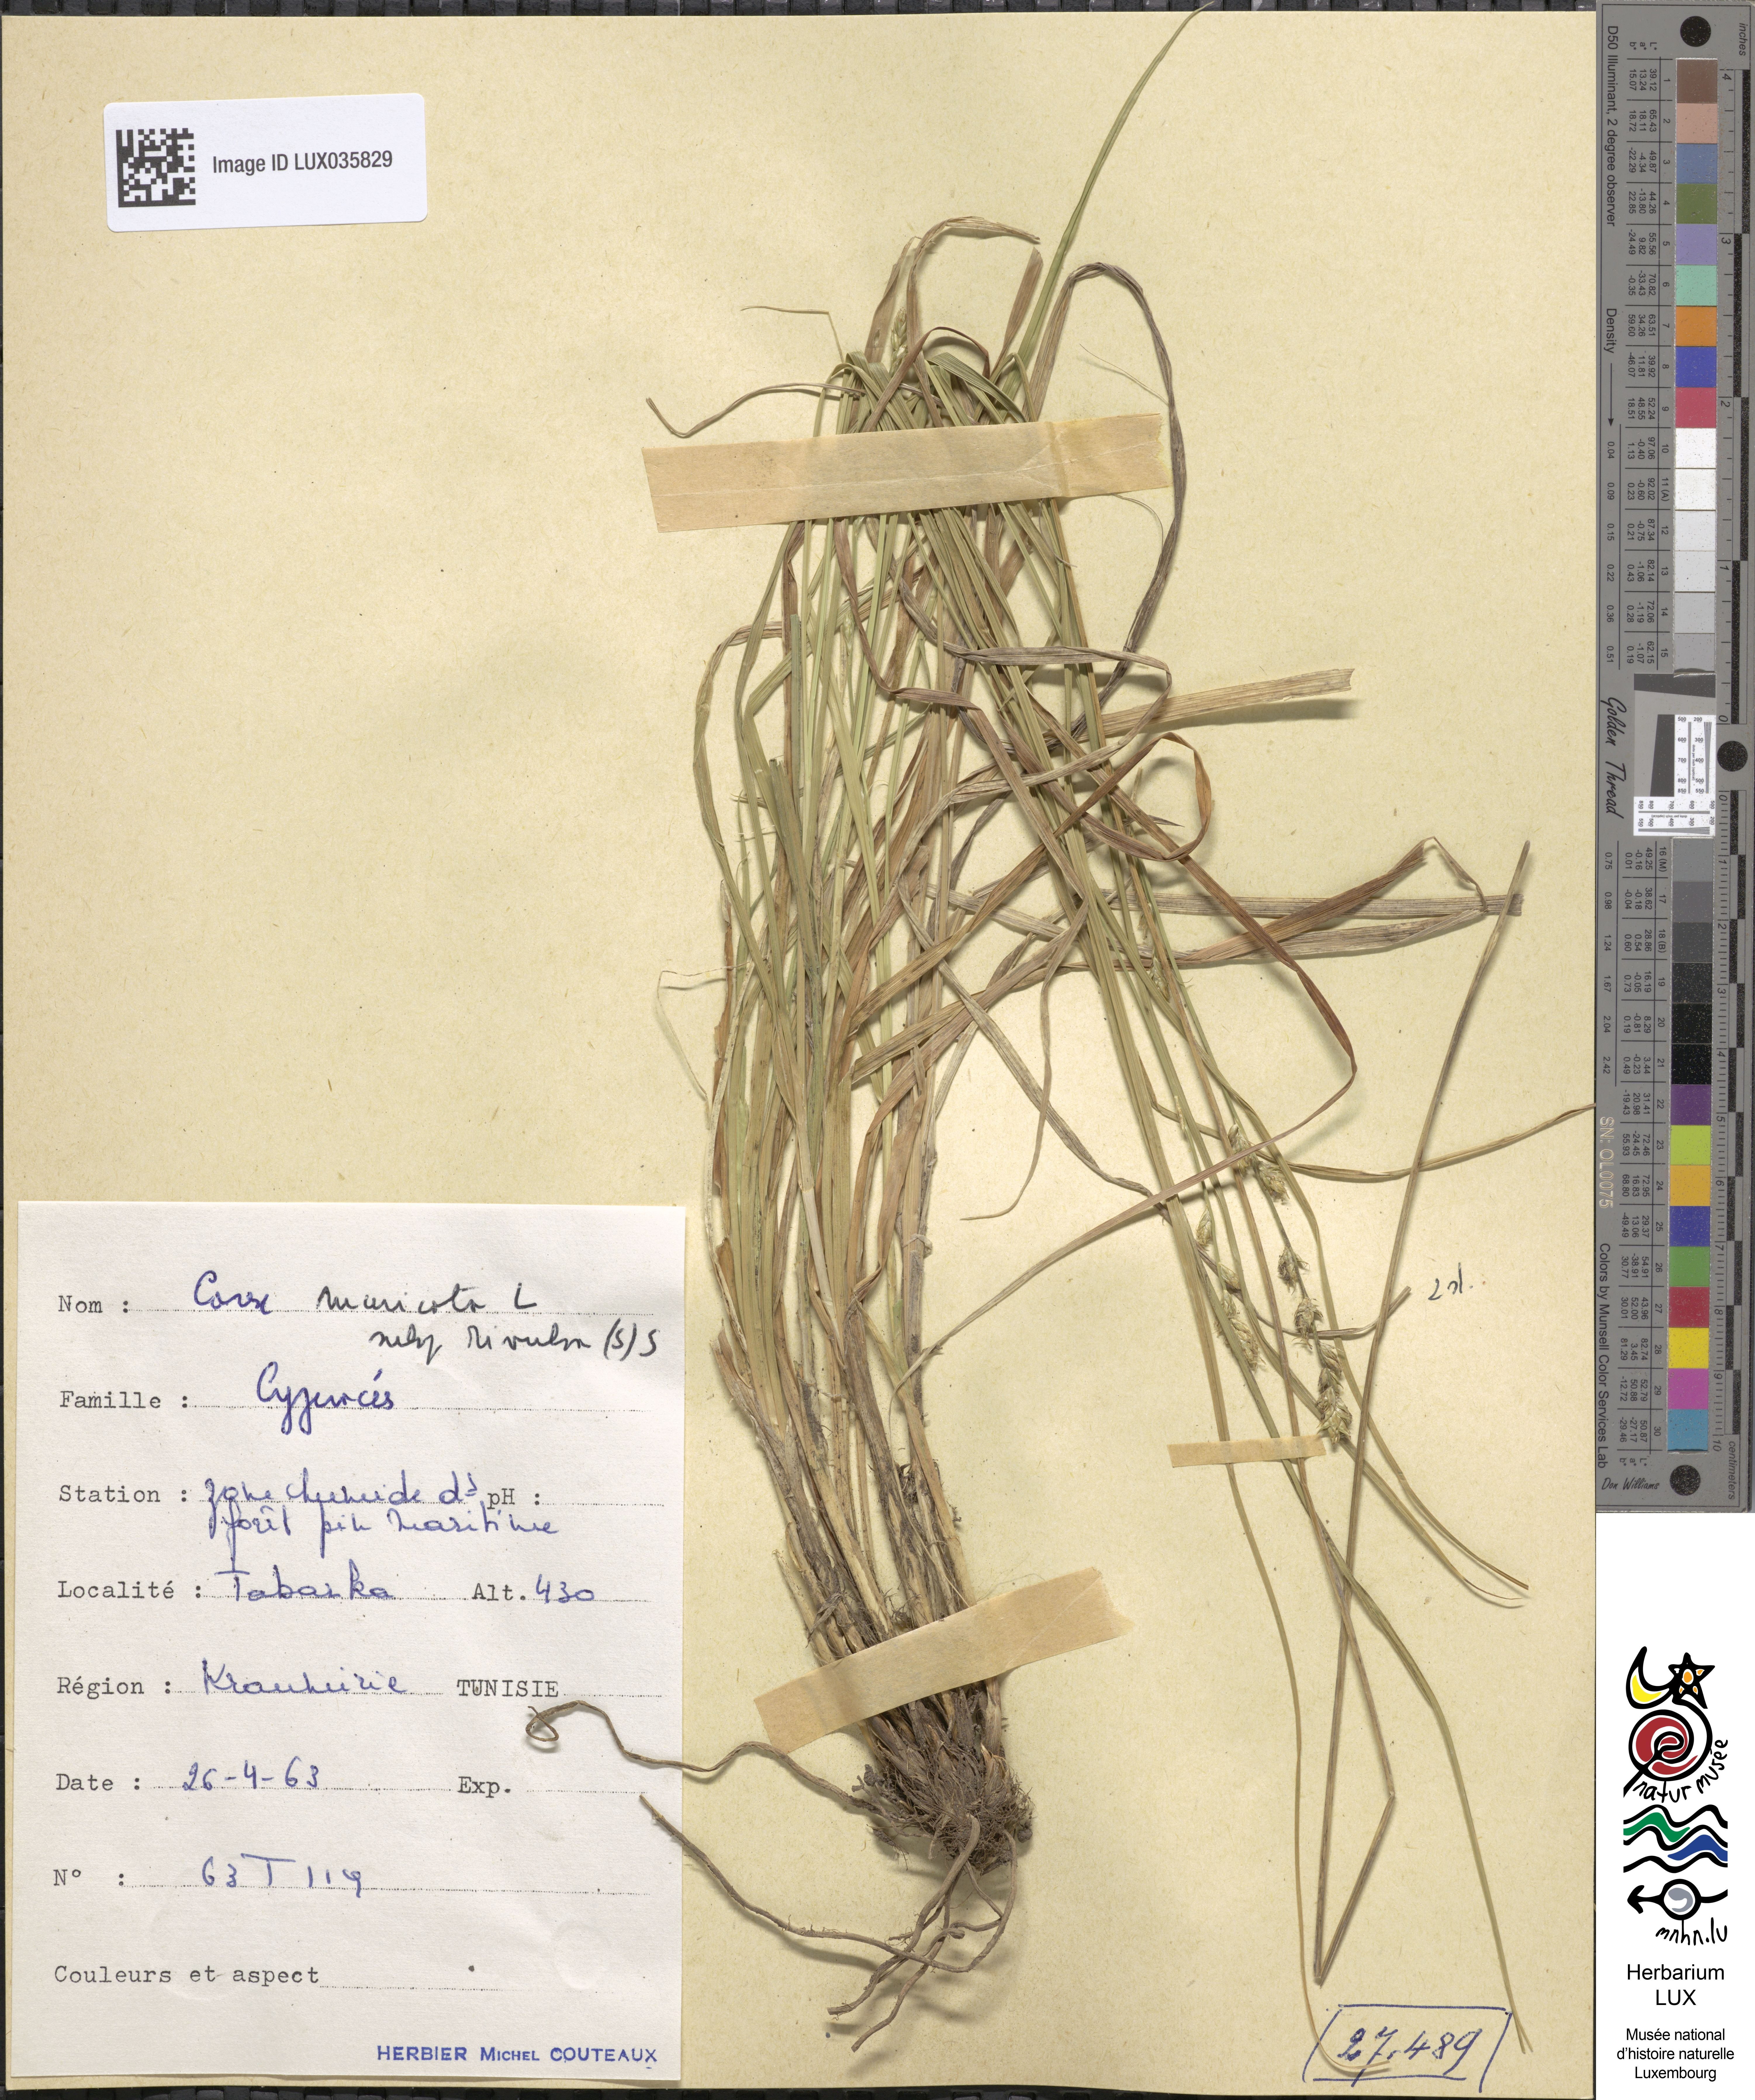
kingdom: Plantae
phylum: Tracheophyta
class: Liliopsida
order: Poales
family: Cyperaceae
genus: Carex
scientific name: Carex divulsa
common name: Grassland sedge
